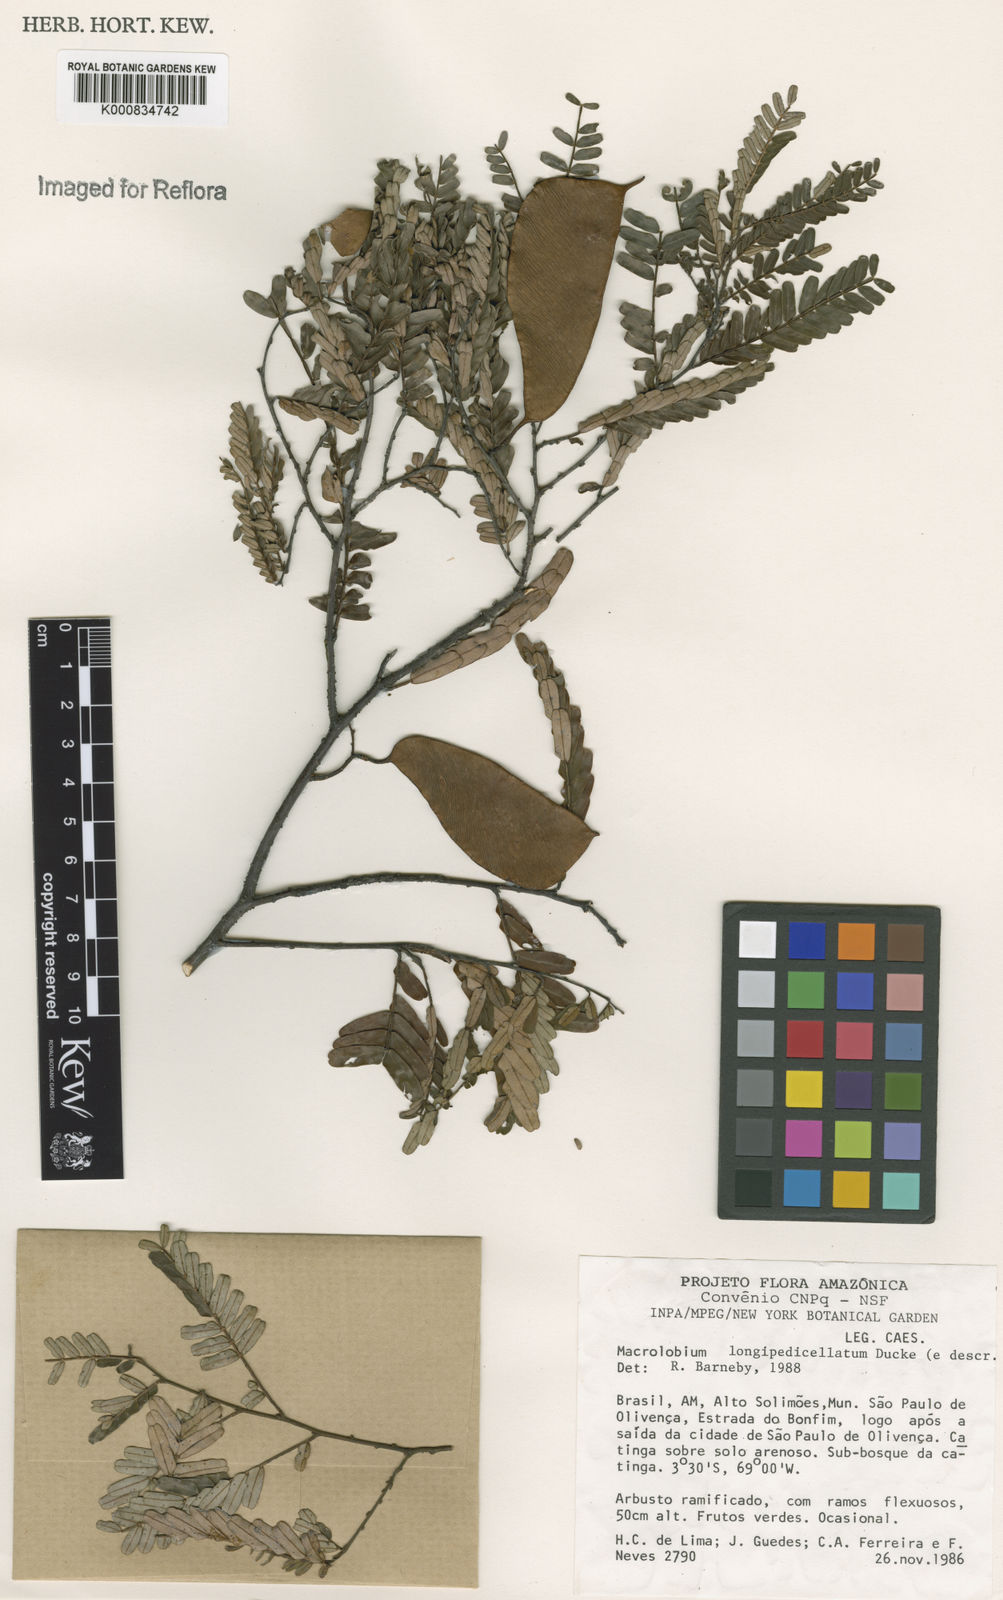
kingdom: Plantae
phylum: Tracheophyta
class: Magnoliopsida
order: Fabales
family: Fabaceae
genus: Macrolobium
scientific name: Macrolobium longipedicellatum
